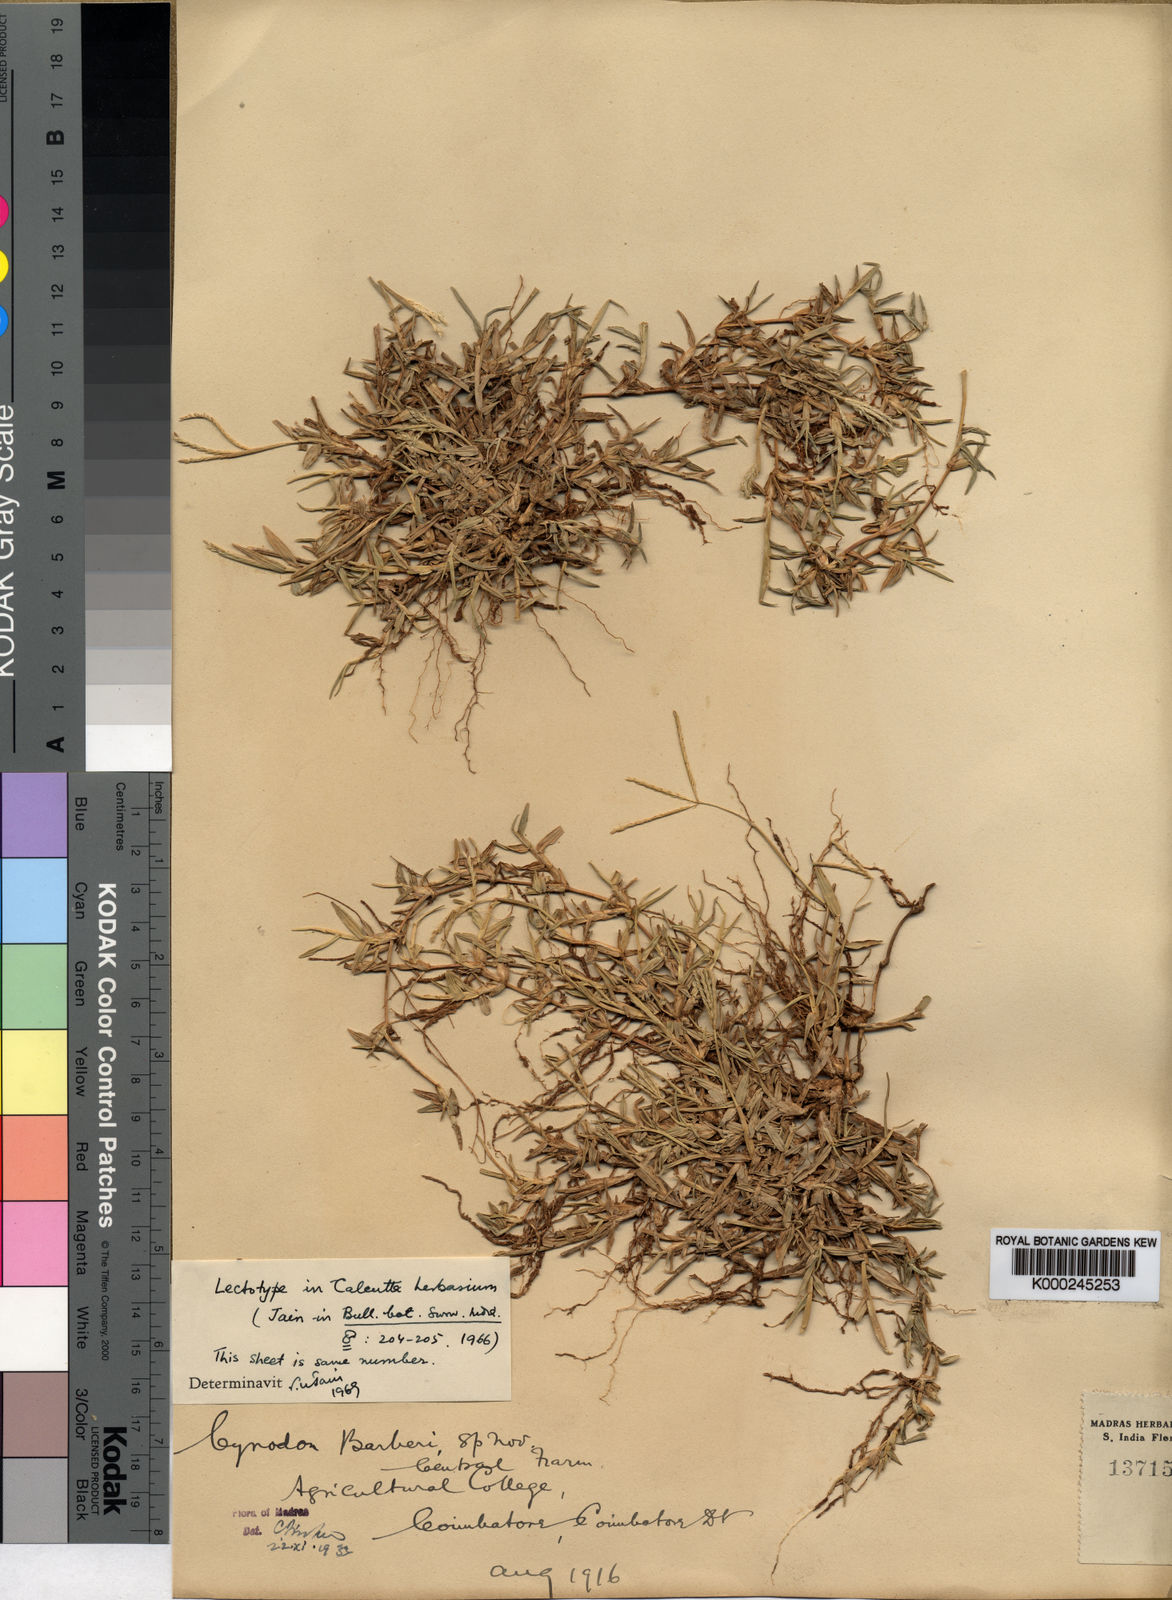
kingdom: Plantae
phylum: Tracheophyta
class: Liliopsida
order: Poales
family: Poaceae
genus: Cynodon
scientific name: Cynodon barberi
